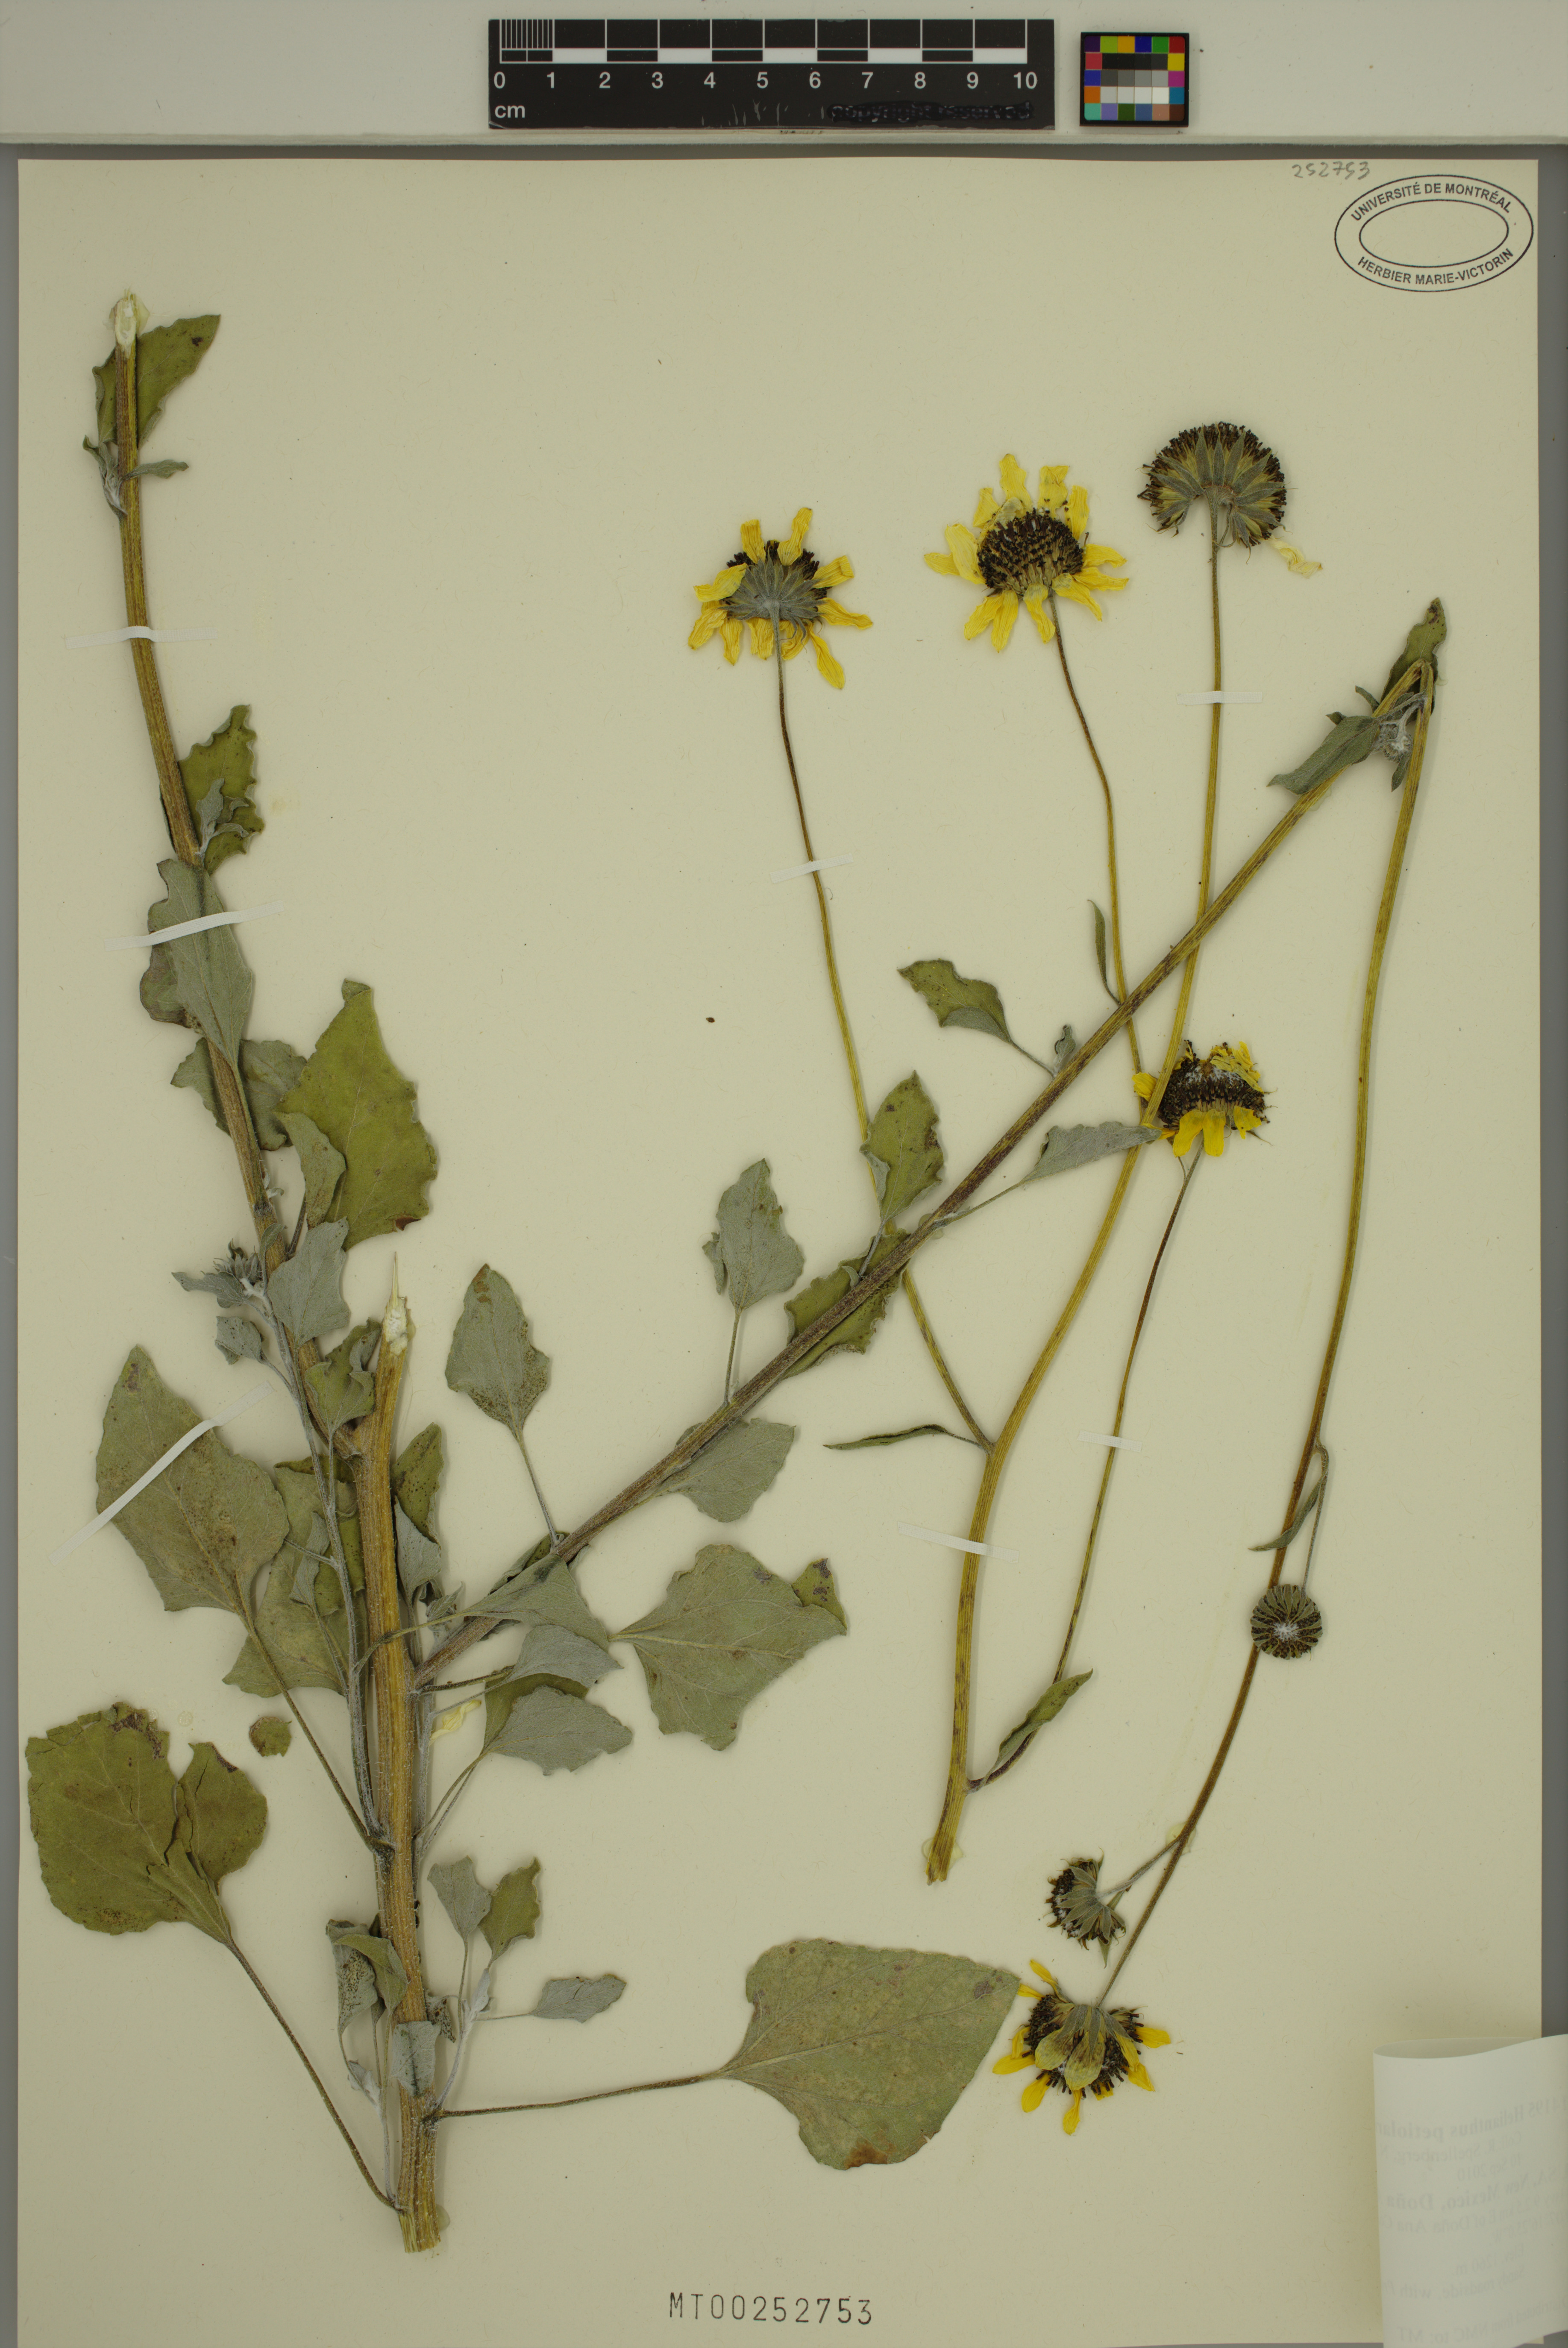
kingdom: Plantae
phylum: Tracheophyta
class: Magnoliopsida
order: Asterales
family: Asteraceae
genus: Helianthus
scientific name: Helianthus petiolaris
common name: Lesser sunflower
